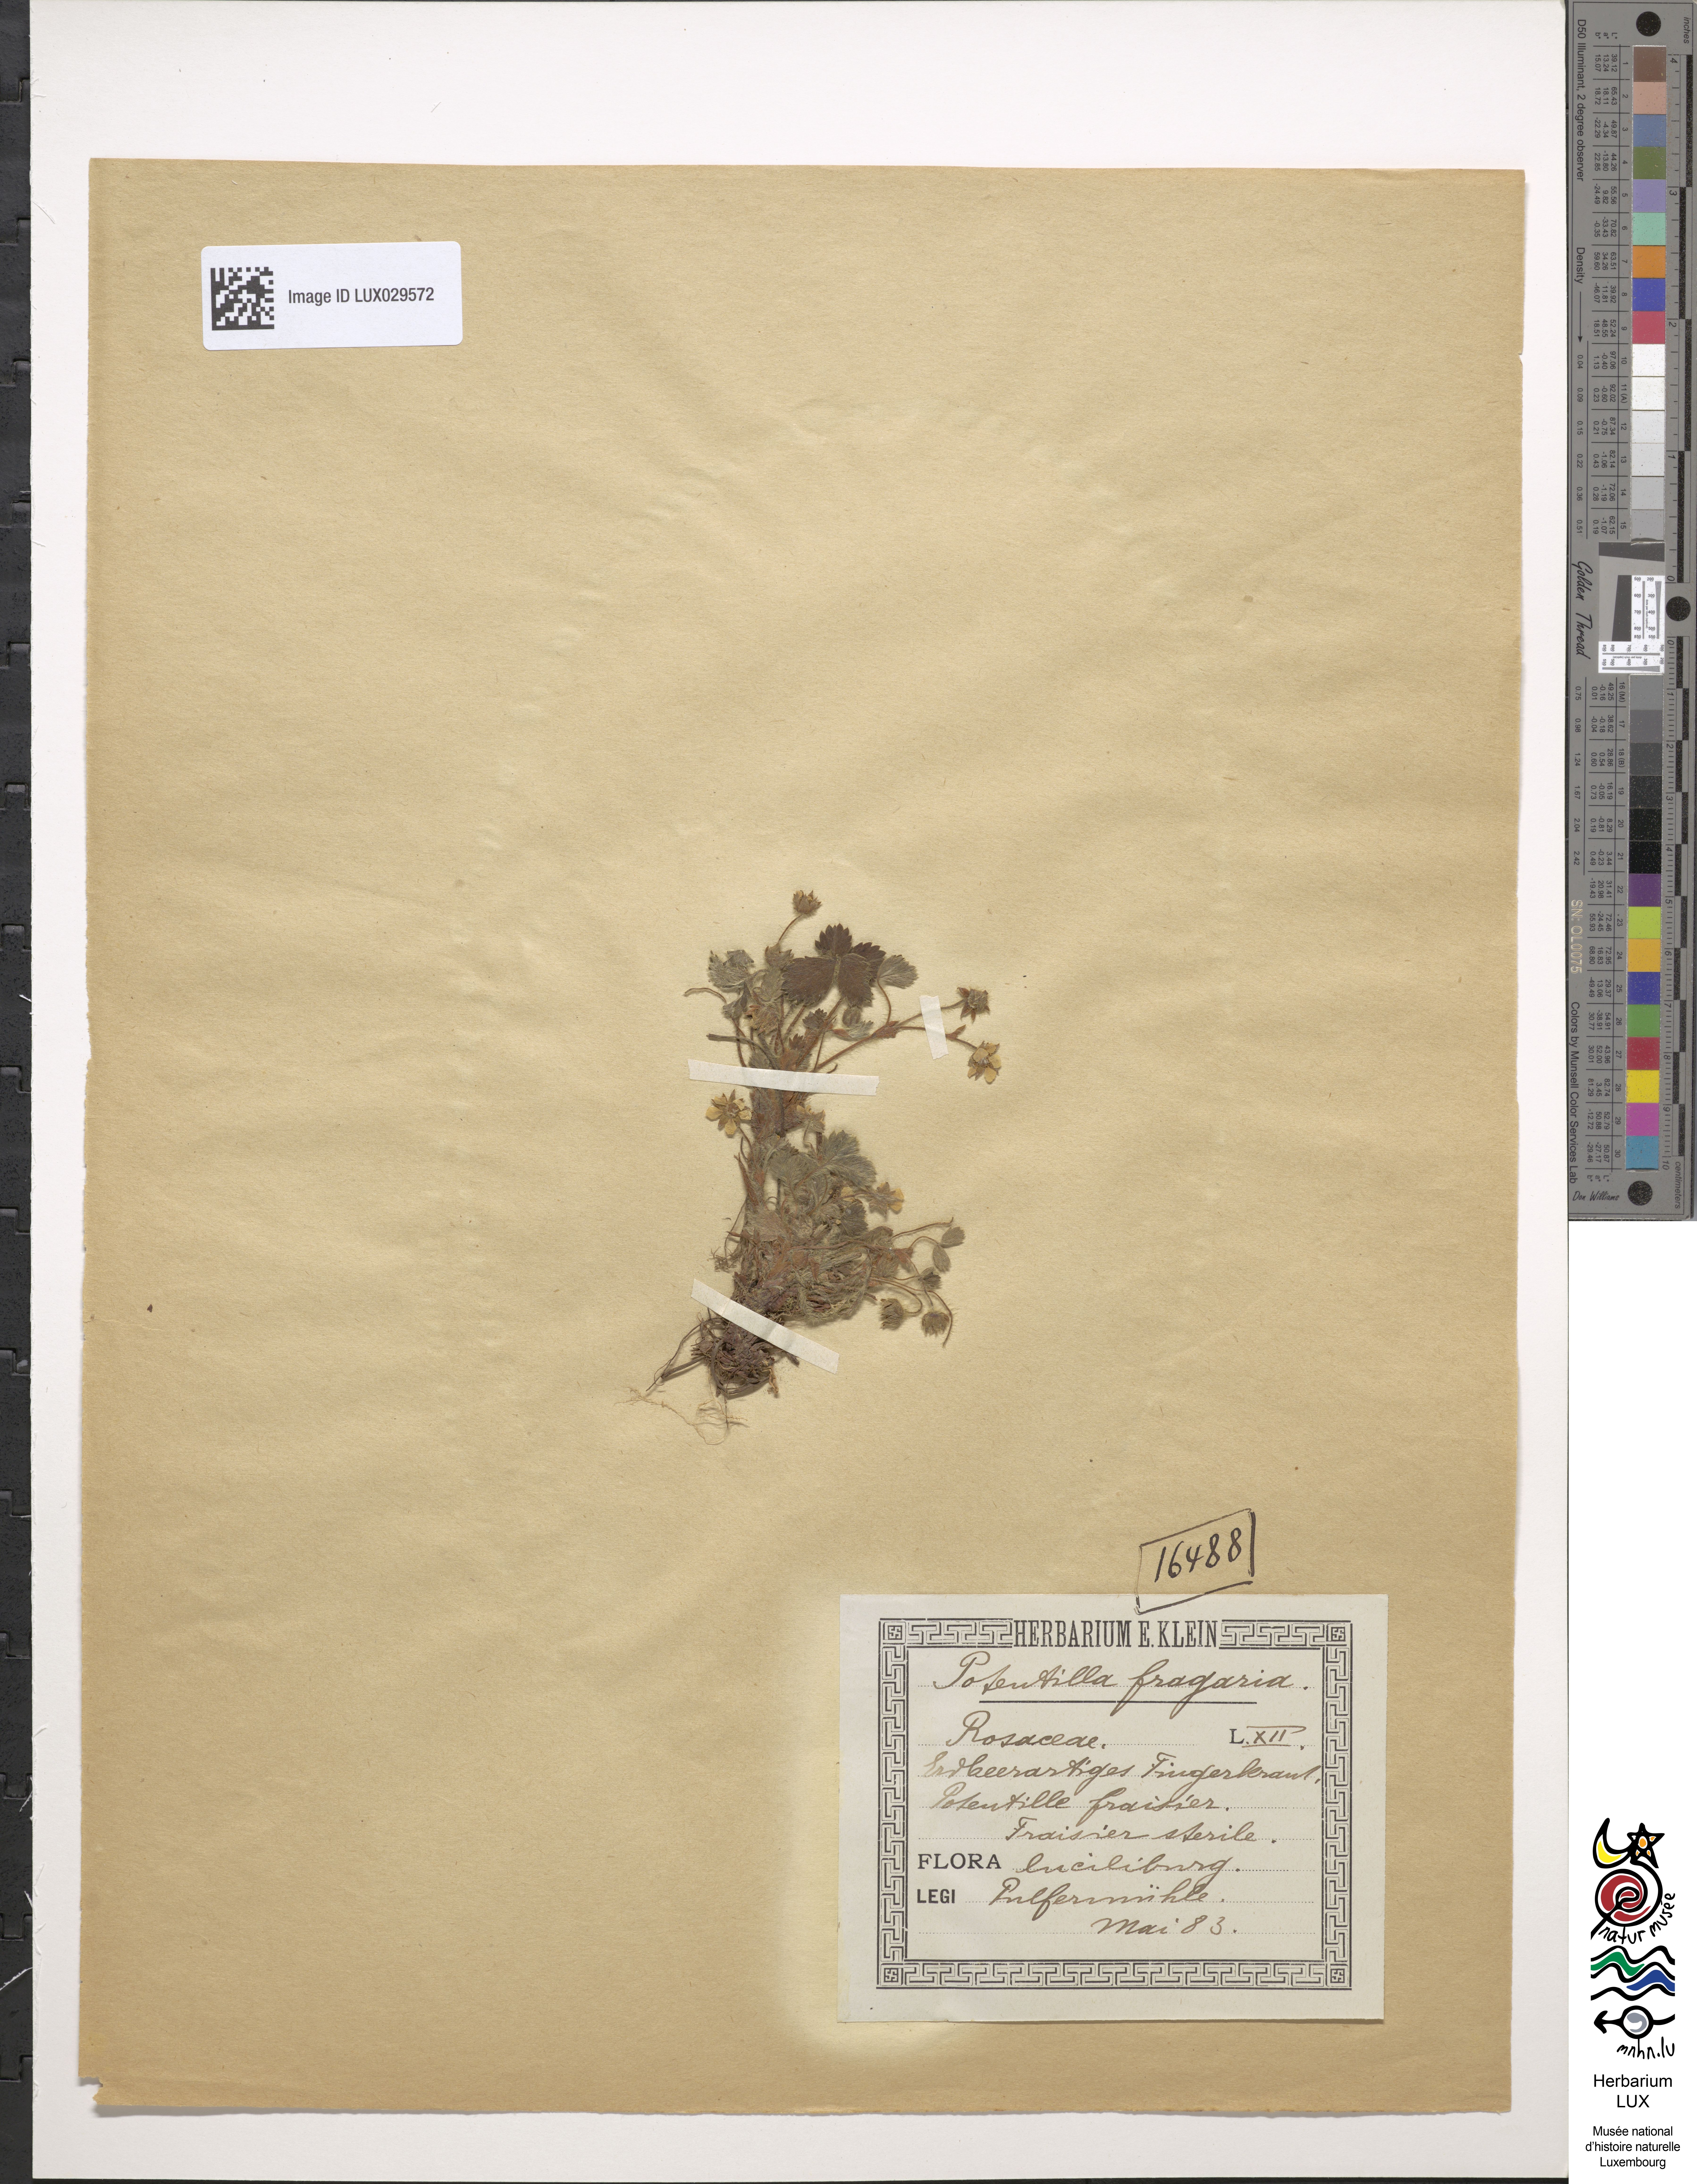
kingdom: Plantae
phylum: Tracheophyta
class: Magnoliopsida
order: Rosales
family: Rosaceae
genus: Potentilla
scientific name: Potentilla sterilis
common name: Barren strawberry
